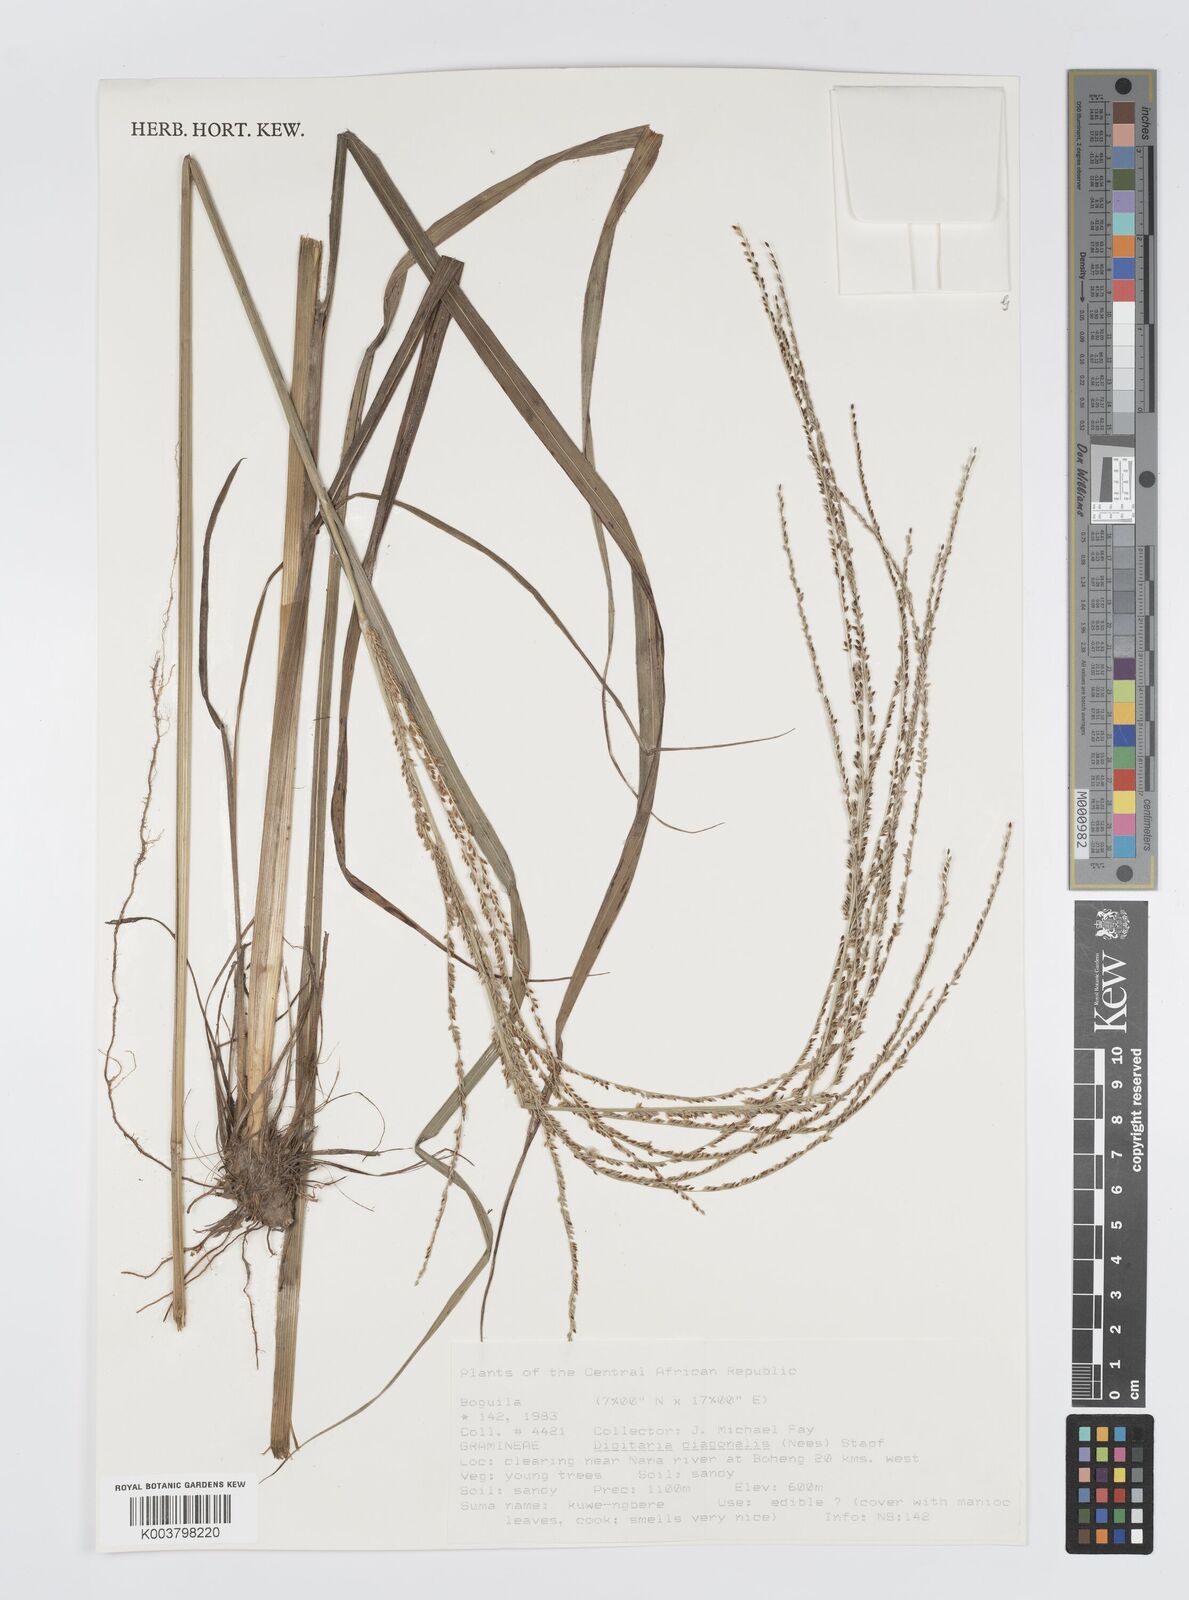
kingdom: Plantae
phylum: Tracheophyta
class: Liliopsida
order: Poales
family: Poaceae
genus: Digitaria
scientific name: Digitaria diagonalis
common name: Brown-seed finger grass
